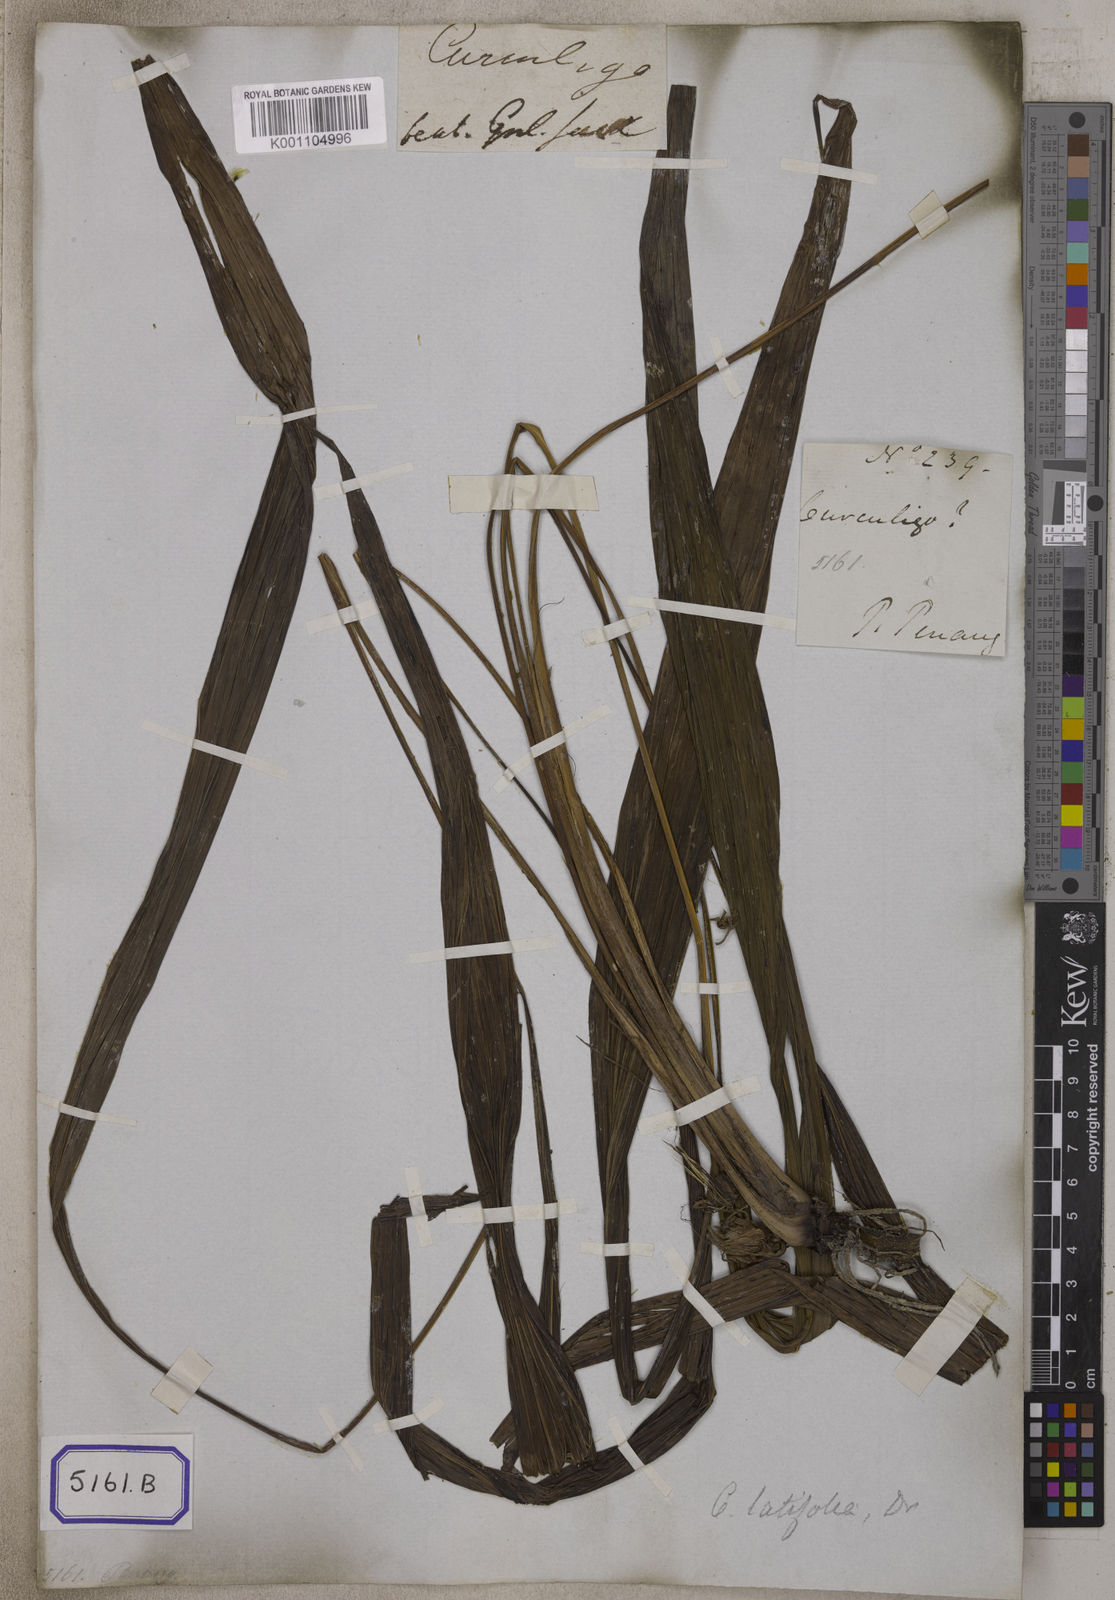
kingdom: Plantae
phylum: Tracheophyta
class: Liliopsida
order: Asparagales
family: Hypoxidaceae
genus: Curculigo
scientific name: Curculigo capitulata
